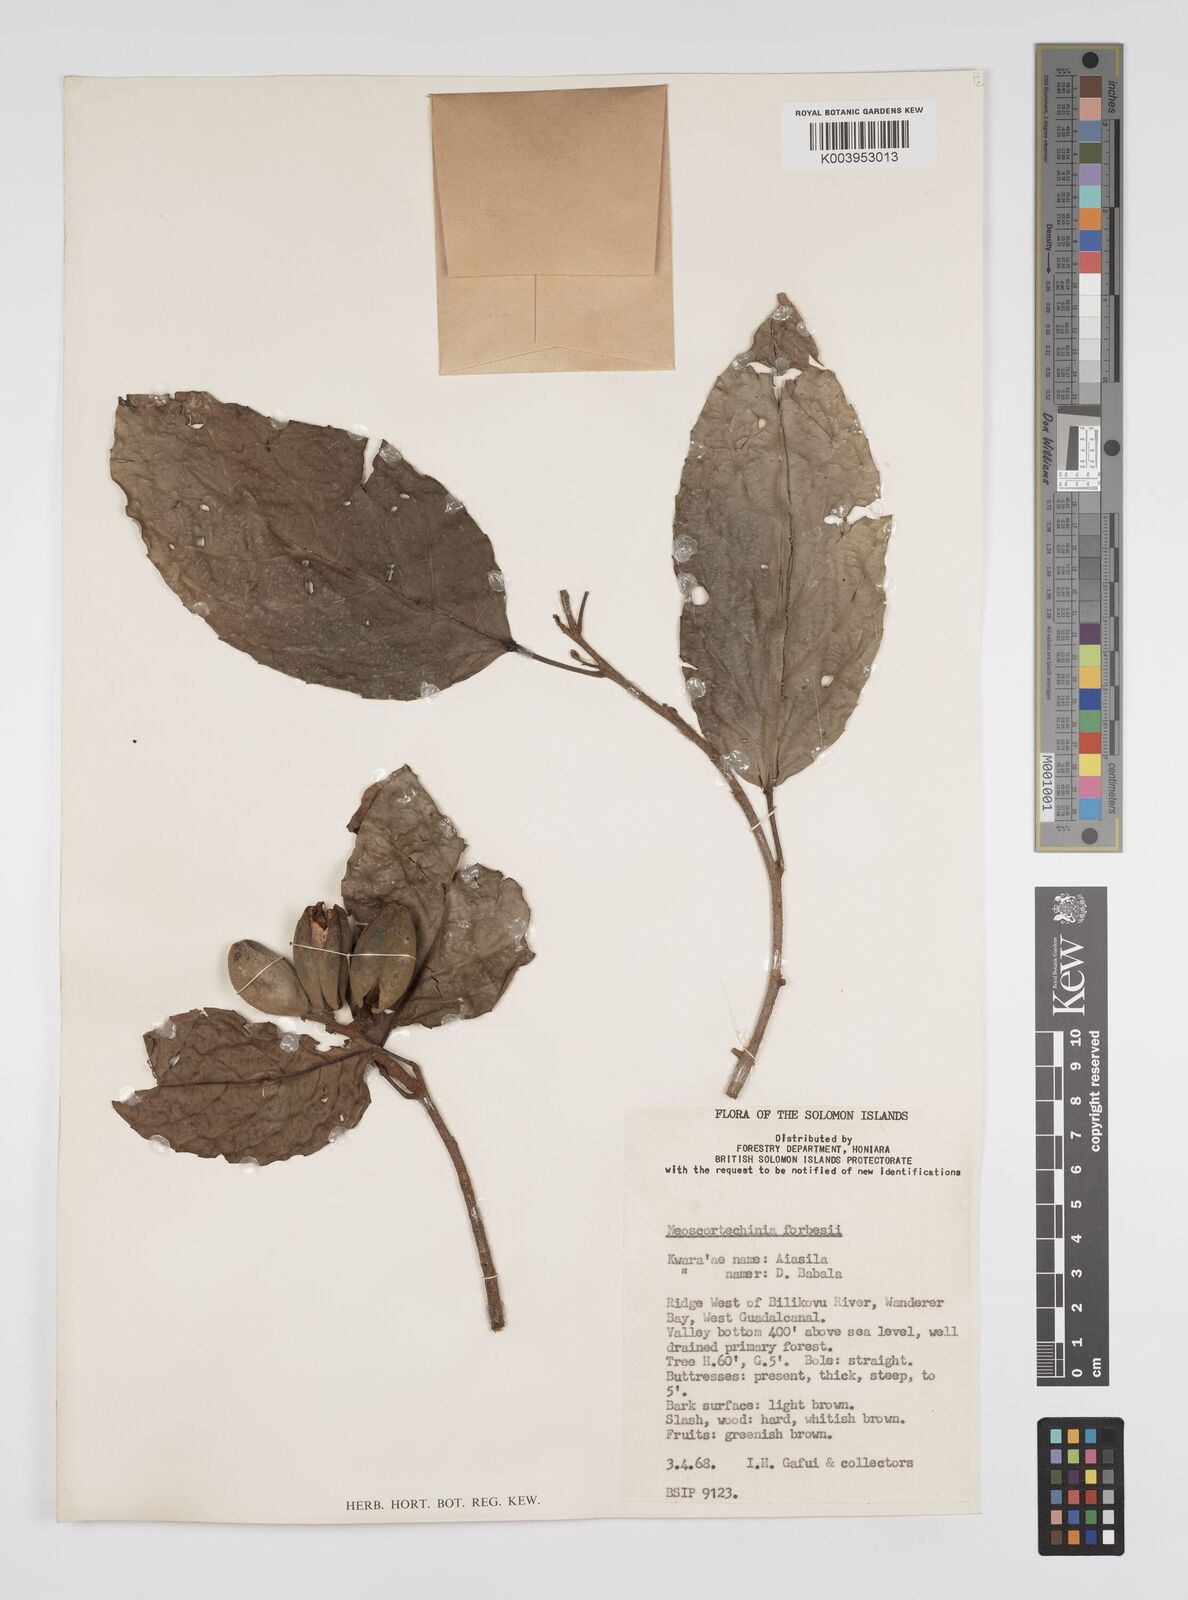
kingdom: Plantae
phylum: Tracheophyta
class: Magnoliopsida
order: Malpighiales
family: Euphorbiaceae
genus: Neoscortechinia
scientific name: Neoscortechinia forbesii
